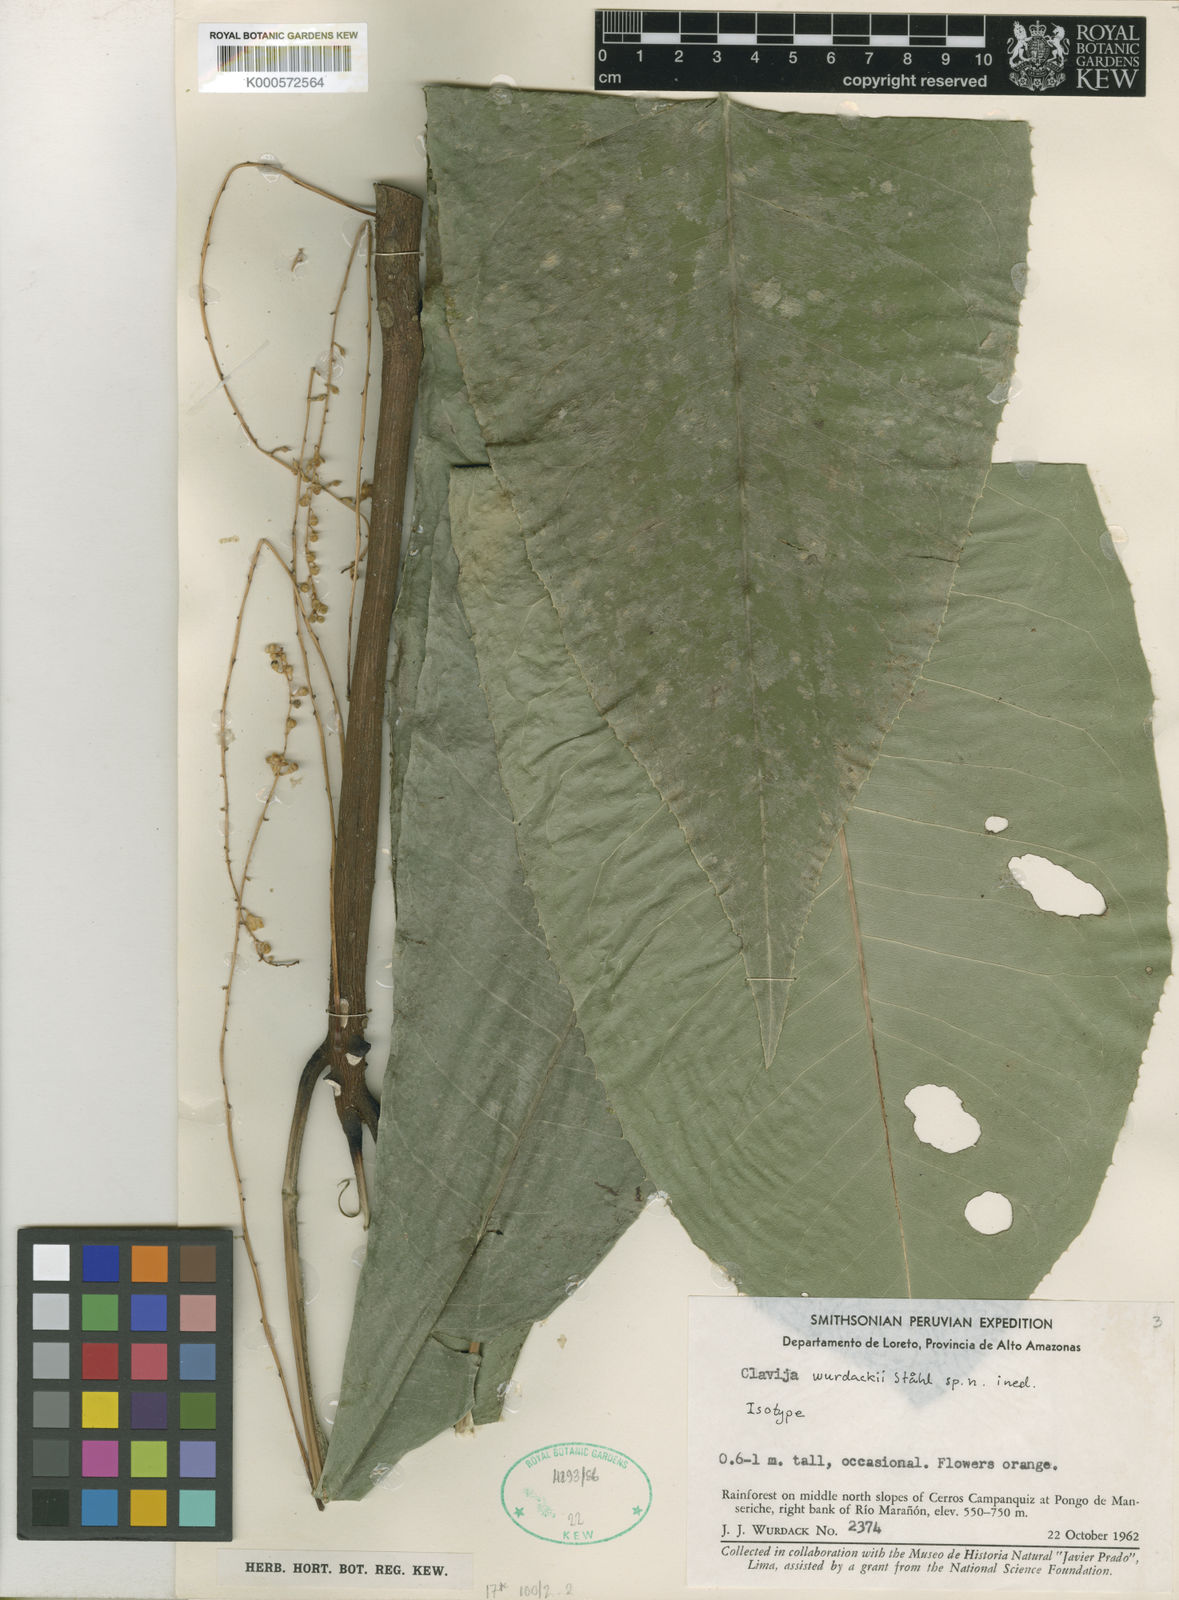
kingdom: Plantae
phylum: Tracheophyta
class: Magnoliopsida
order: Ericales
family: Primulaceae
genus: Clavija
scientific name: Clavija
